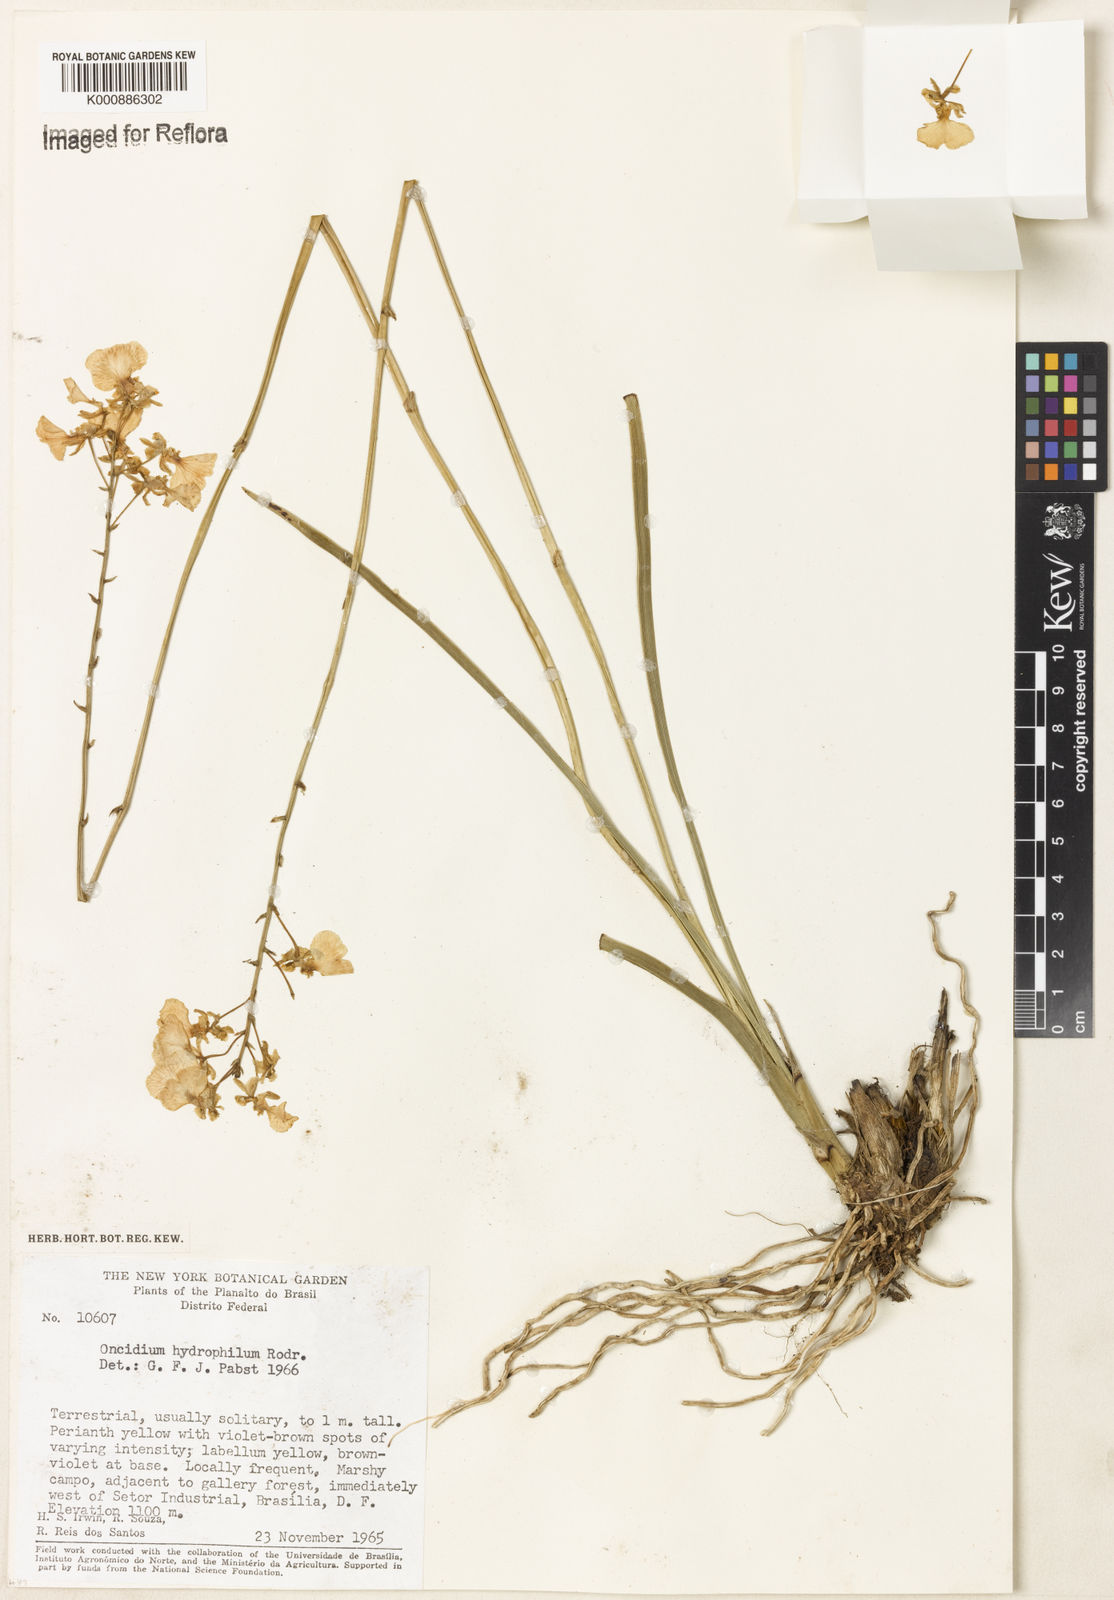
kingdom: Plantae
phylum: Tracheophyta
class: Liliopsida
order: Asparagales
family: Orchidaceae
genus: Gomesa
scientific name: Gomesa hydrophila
